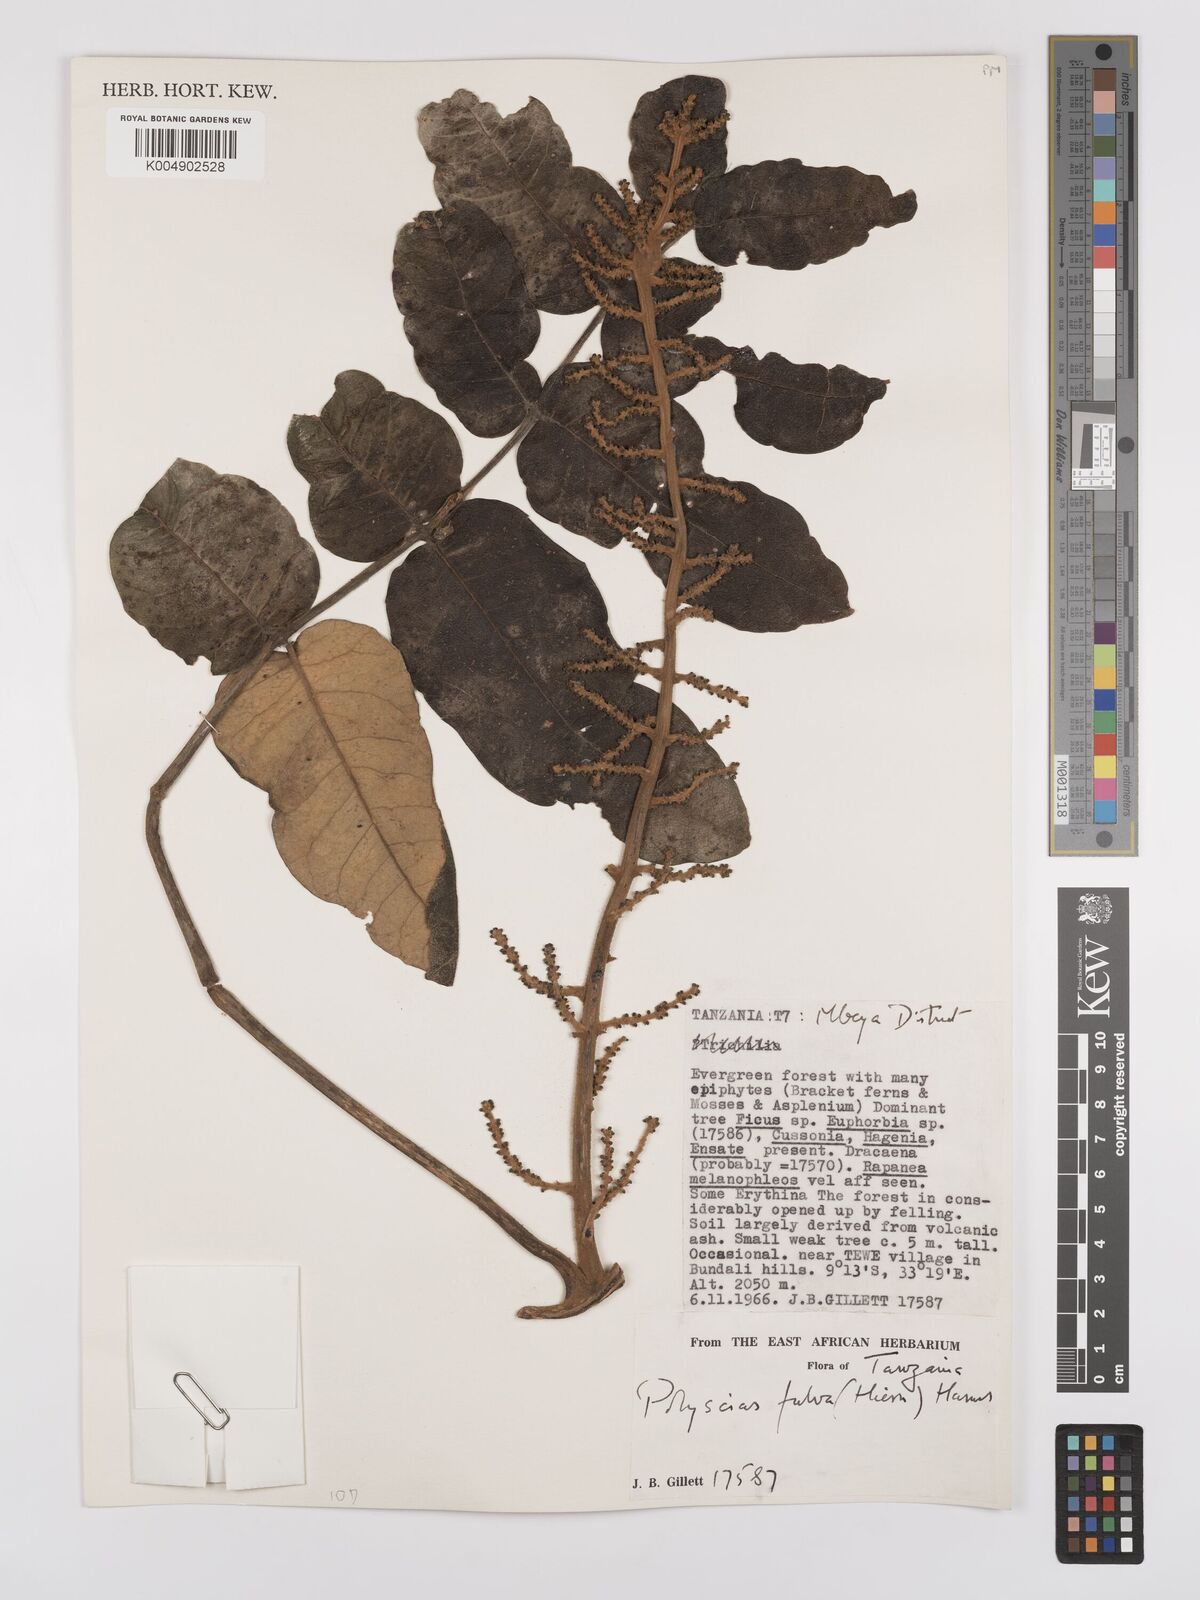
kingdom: Plantae
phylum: Tracheophyta
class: Magnoliopsida
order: Apiales
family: Araliaceae
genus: Polyscias
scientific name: Polyscias fulva
